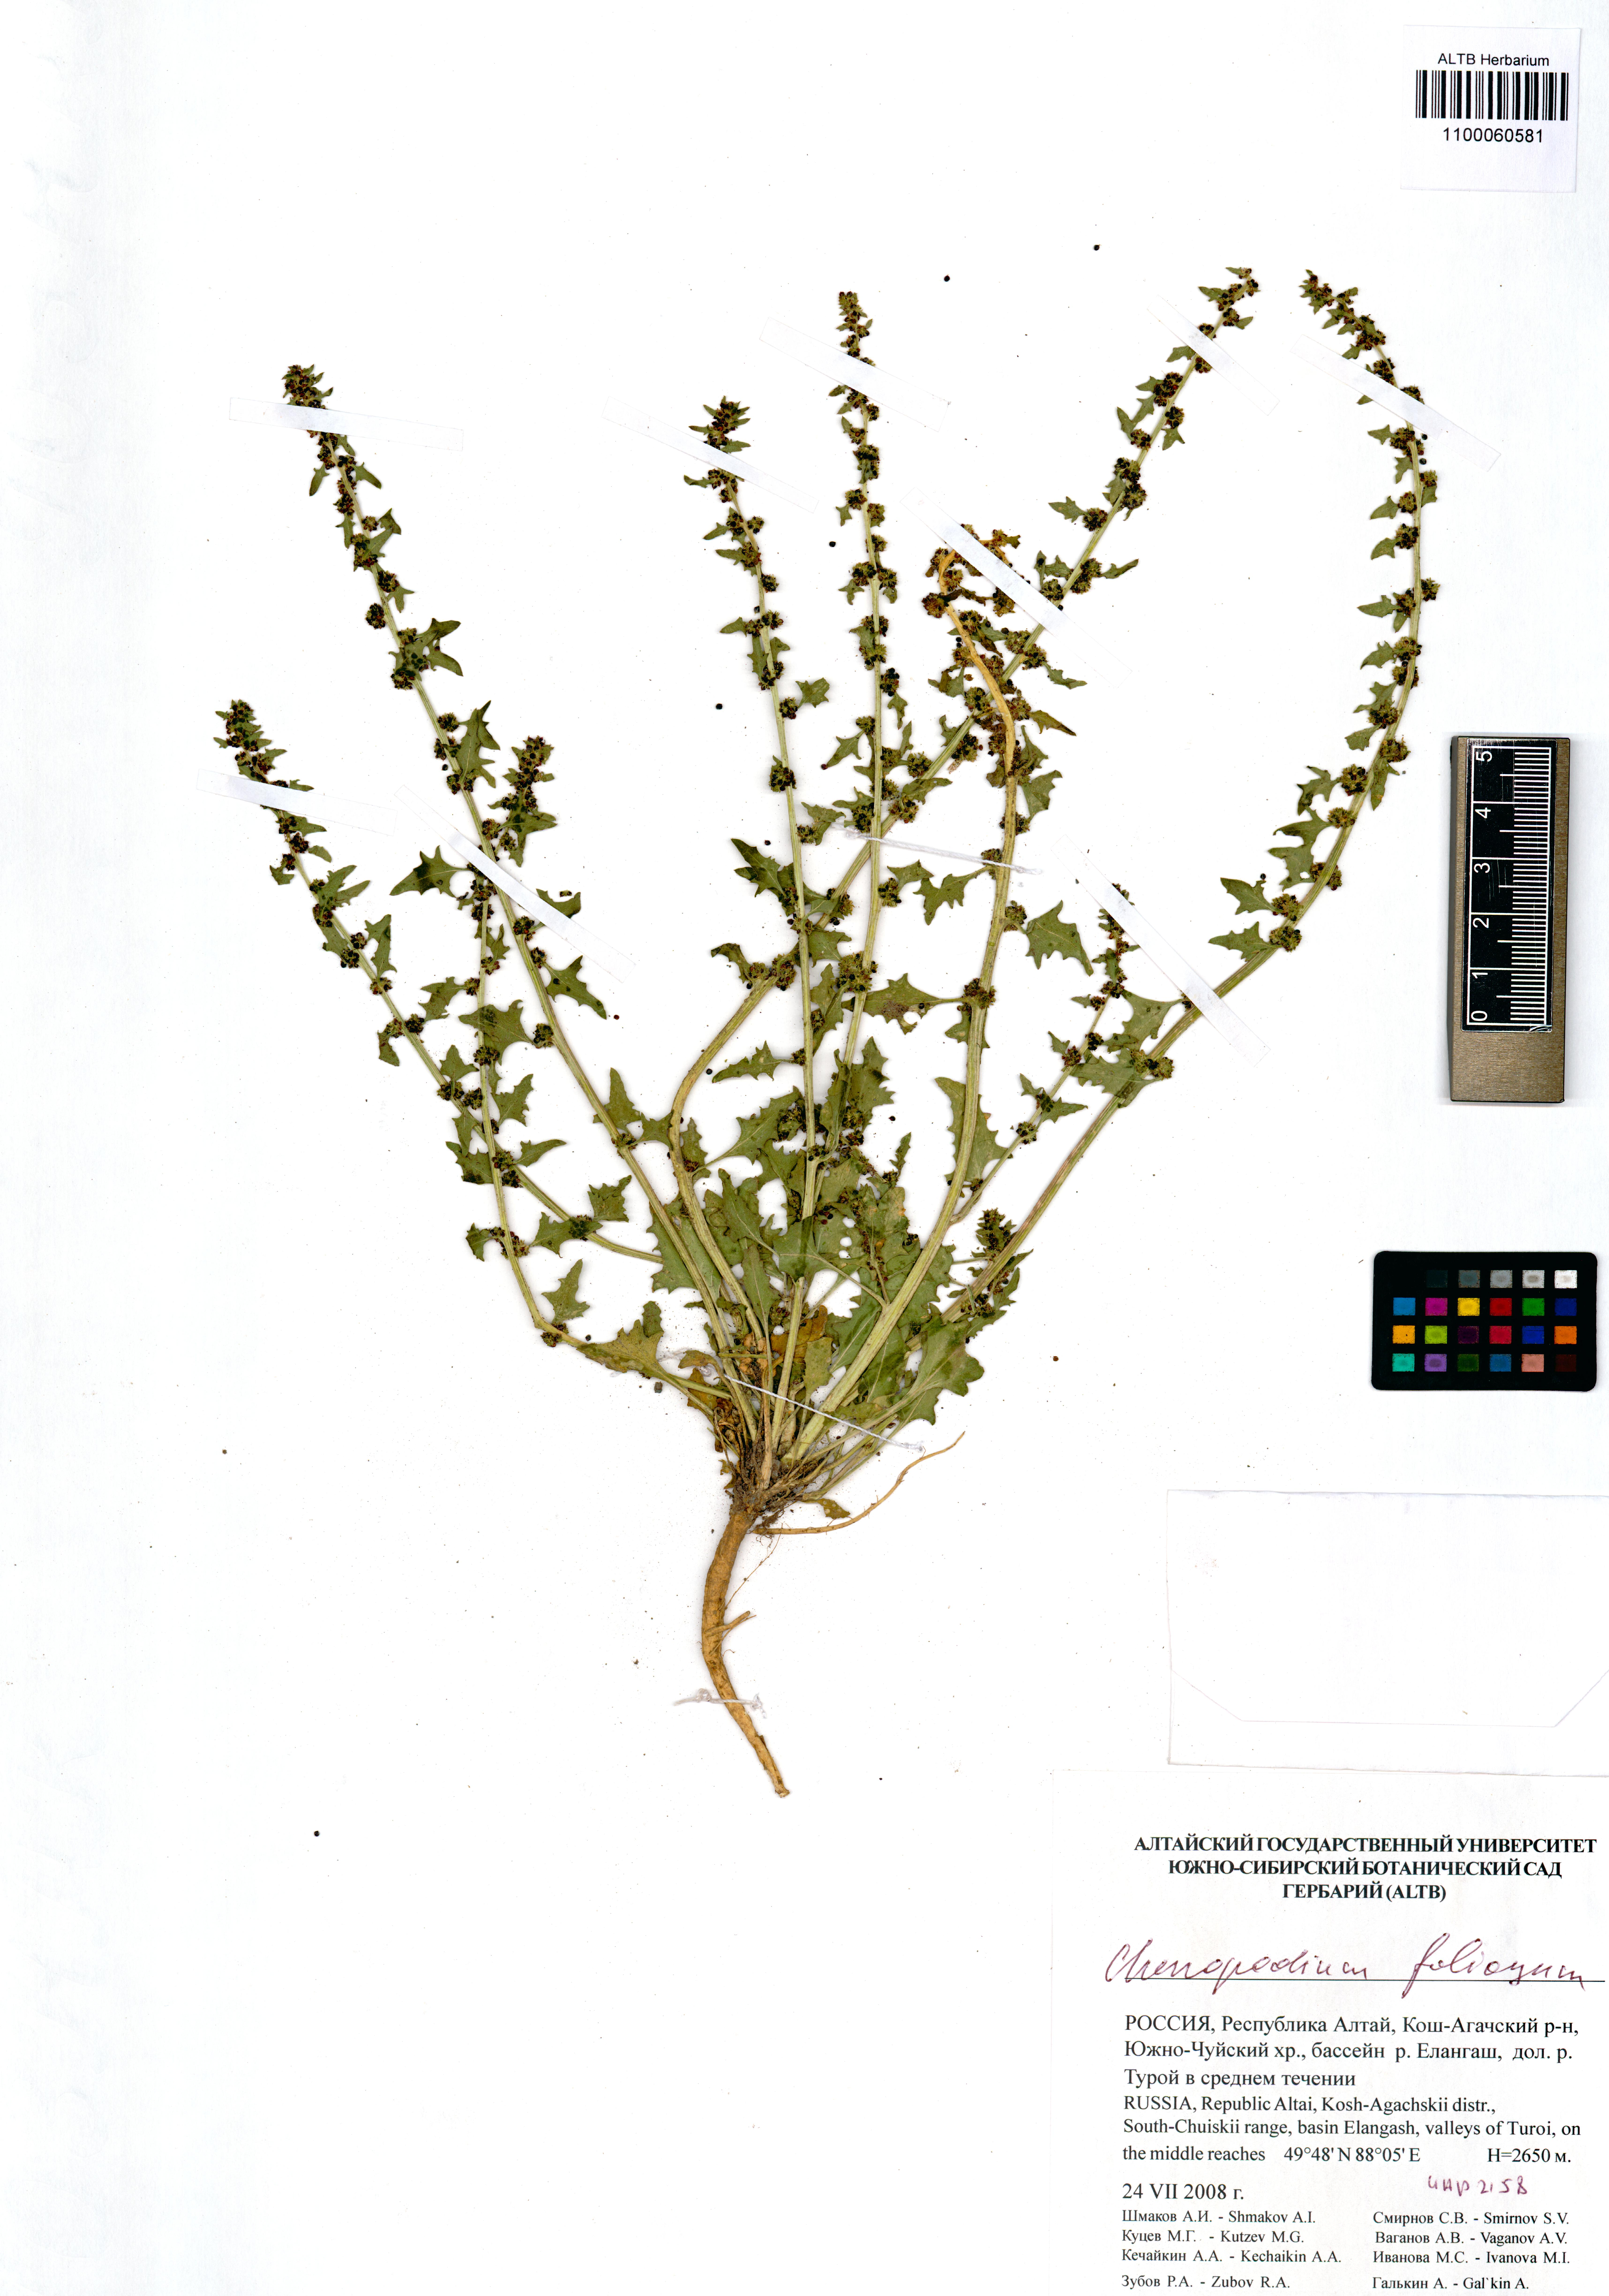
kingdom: Plantae
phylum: Tracheophyta
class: Magnoliopsida
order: Caryophyllales
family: Amaranthaceae
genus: Blitum
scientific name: Blitum virgatum
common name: Strawberry goosefoot
